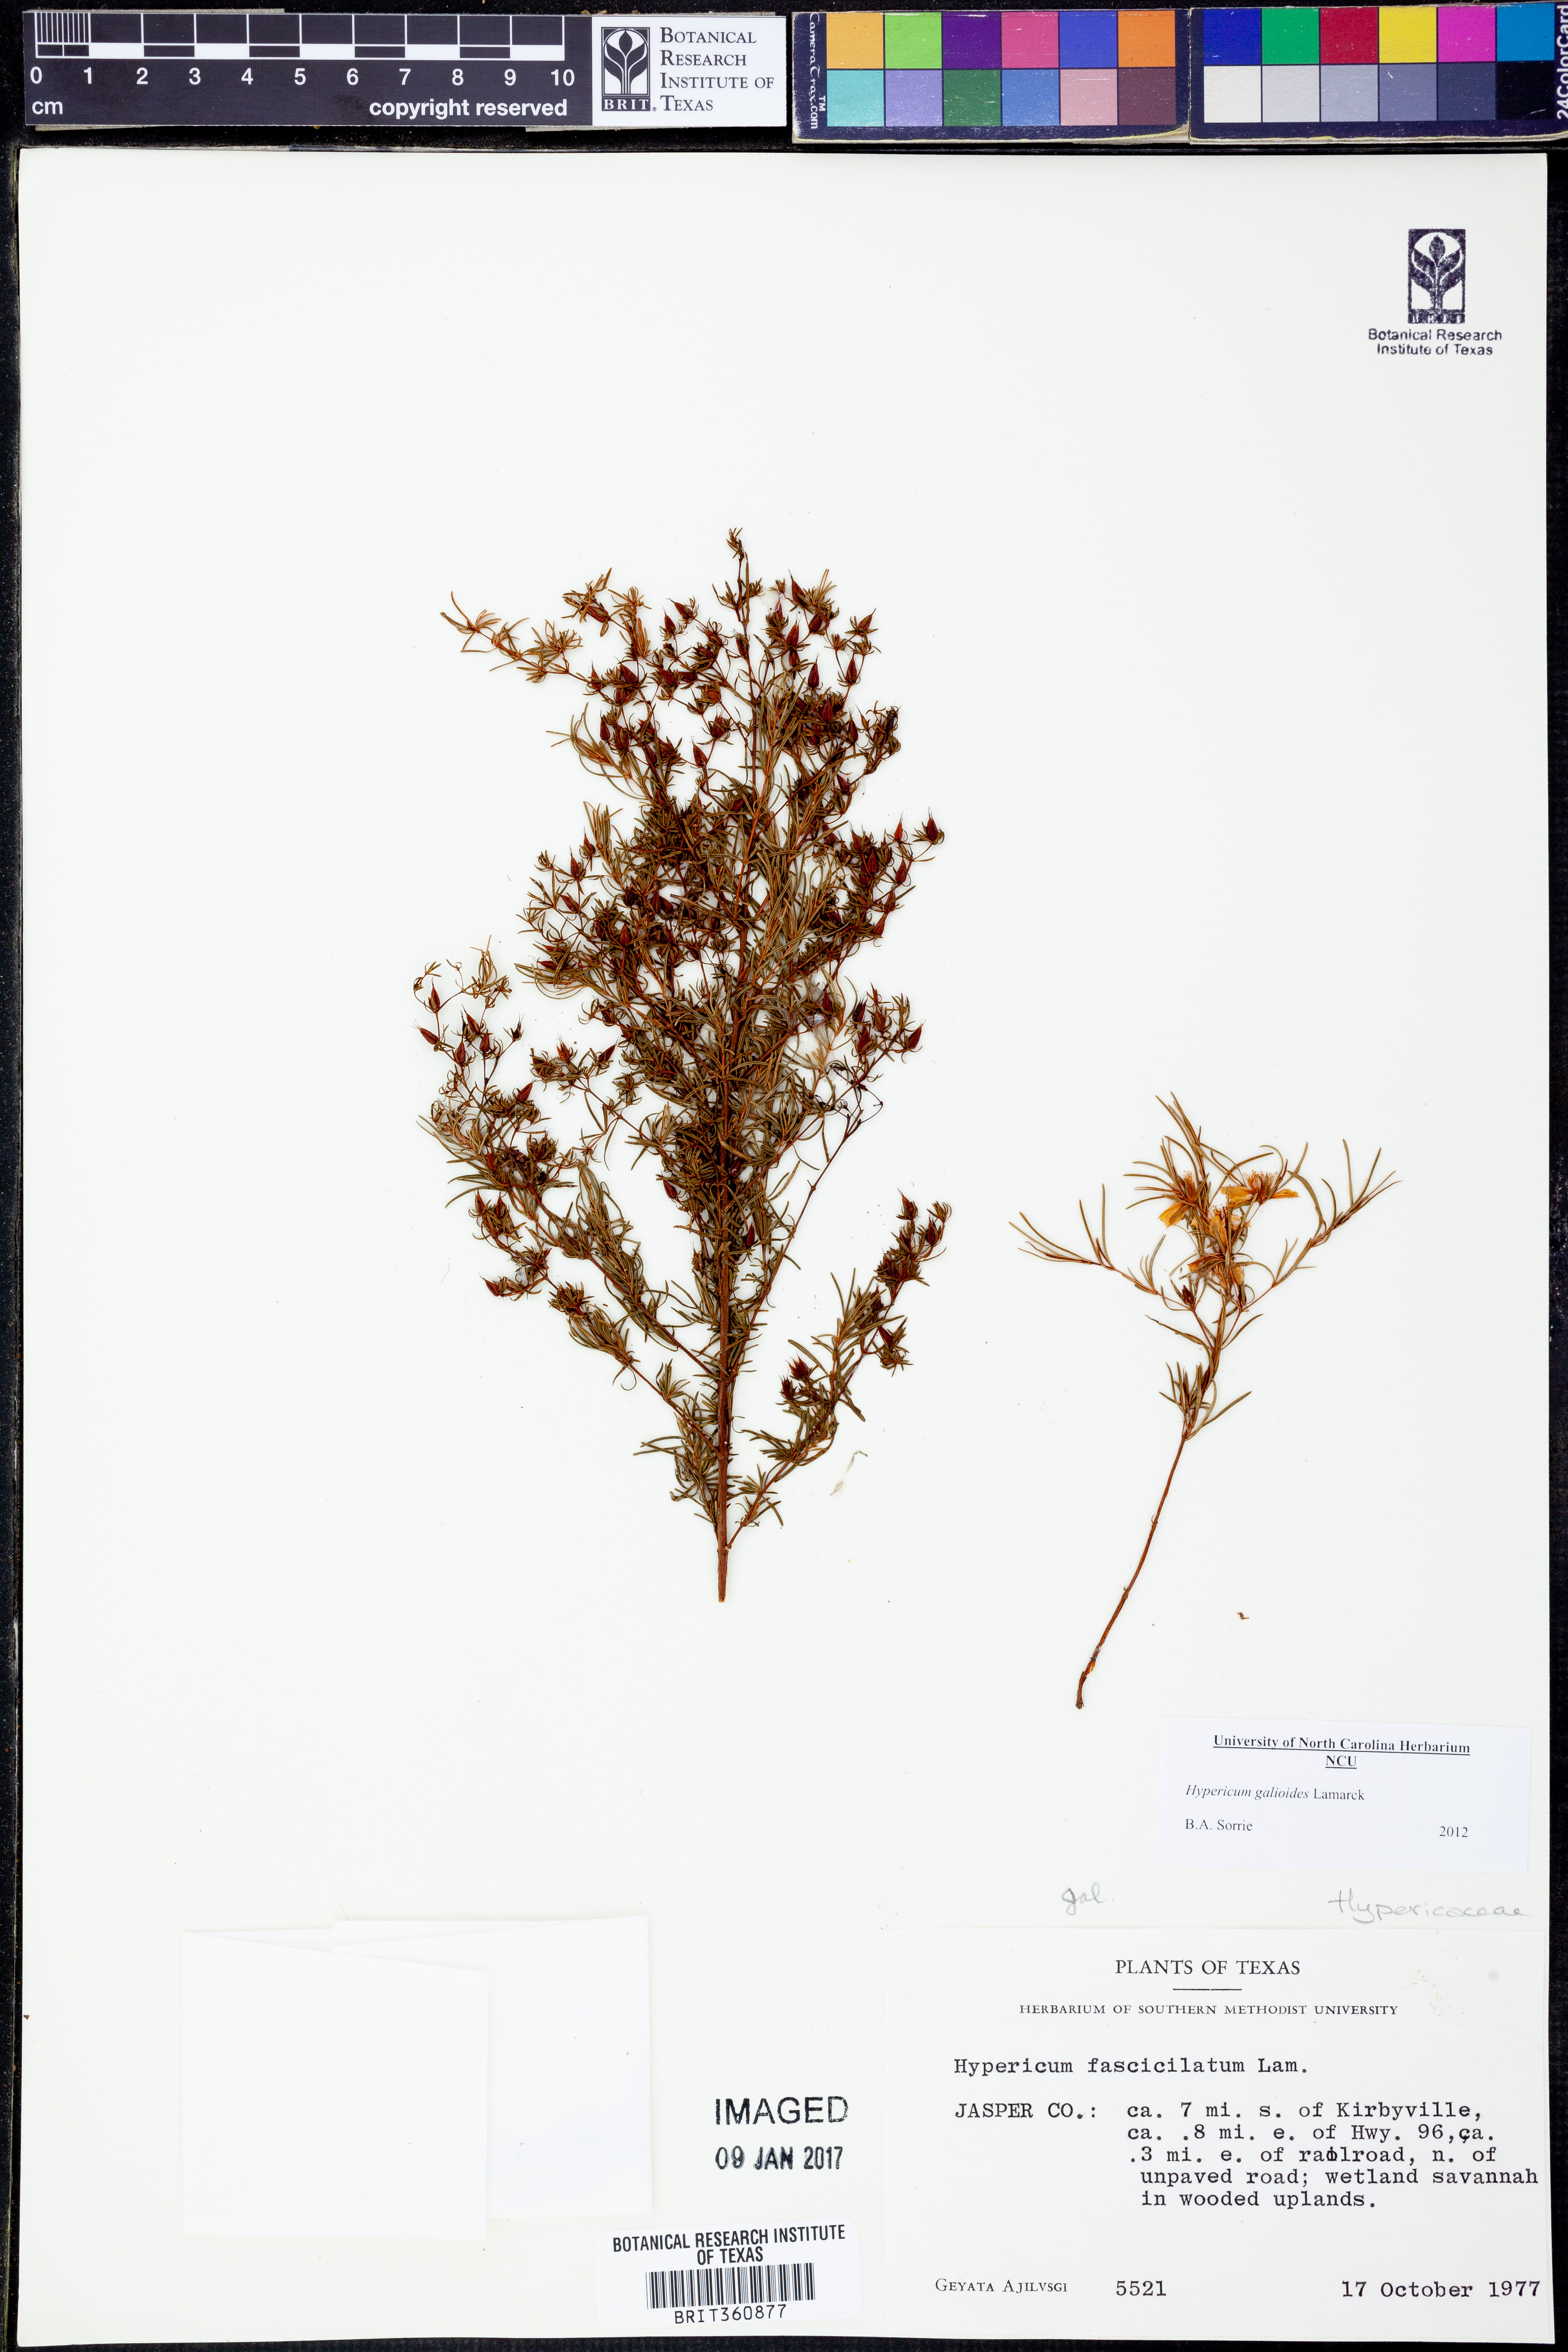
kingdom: Plantae
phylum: Tracheophyta
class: Magnoliopsida
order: Malpighiales
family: Hypericaceae
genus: Hypericum
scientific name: Hypericum galioides
